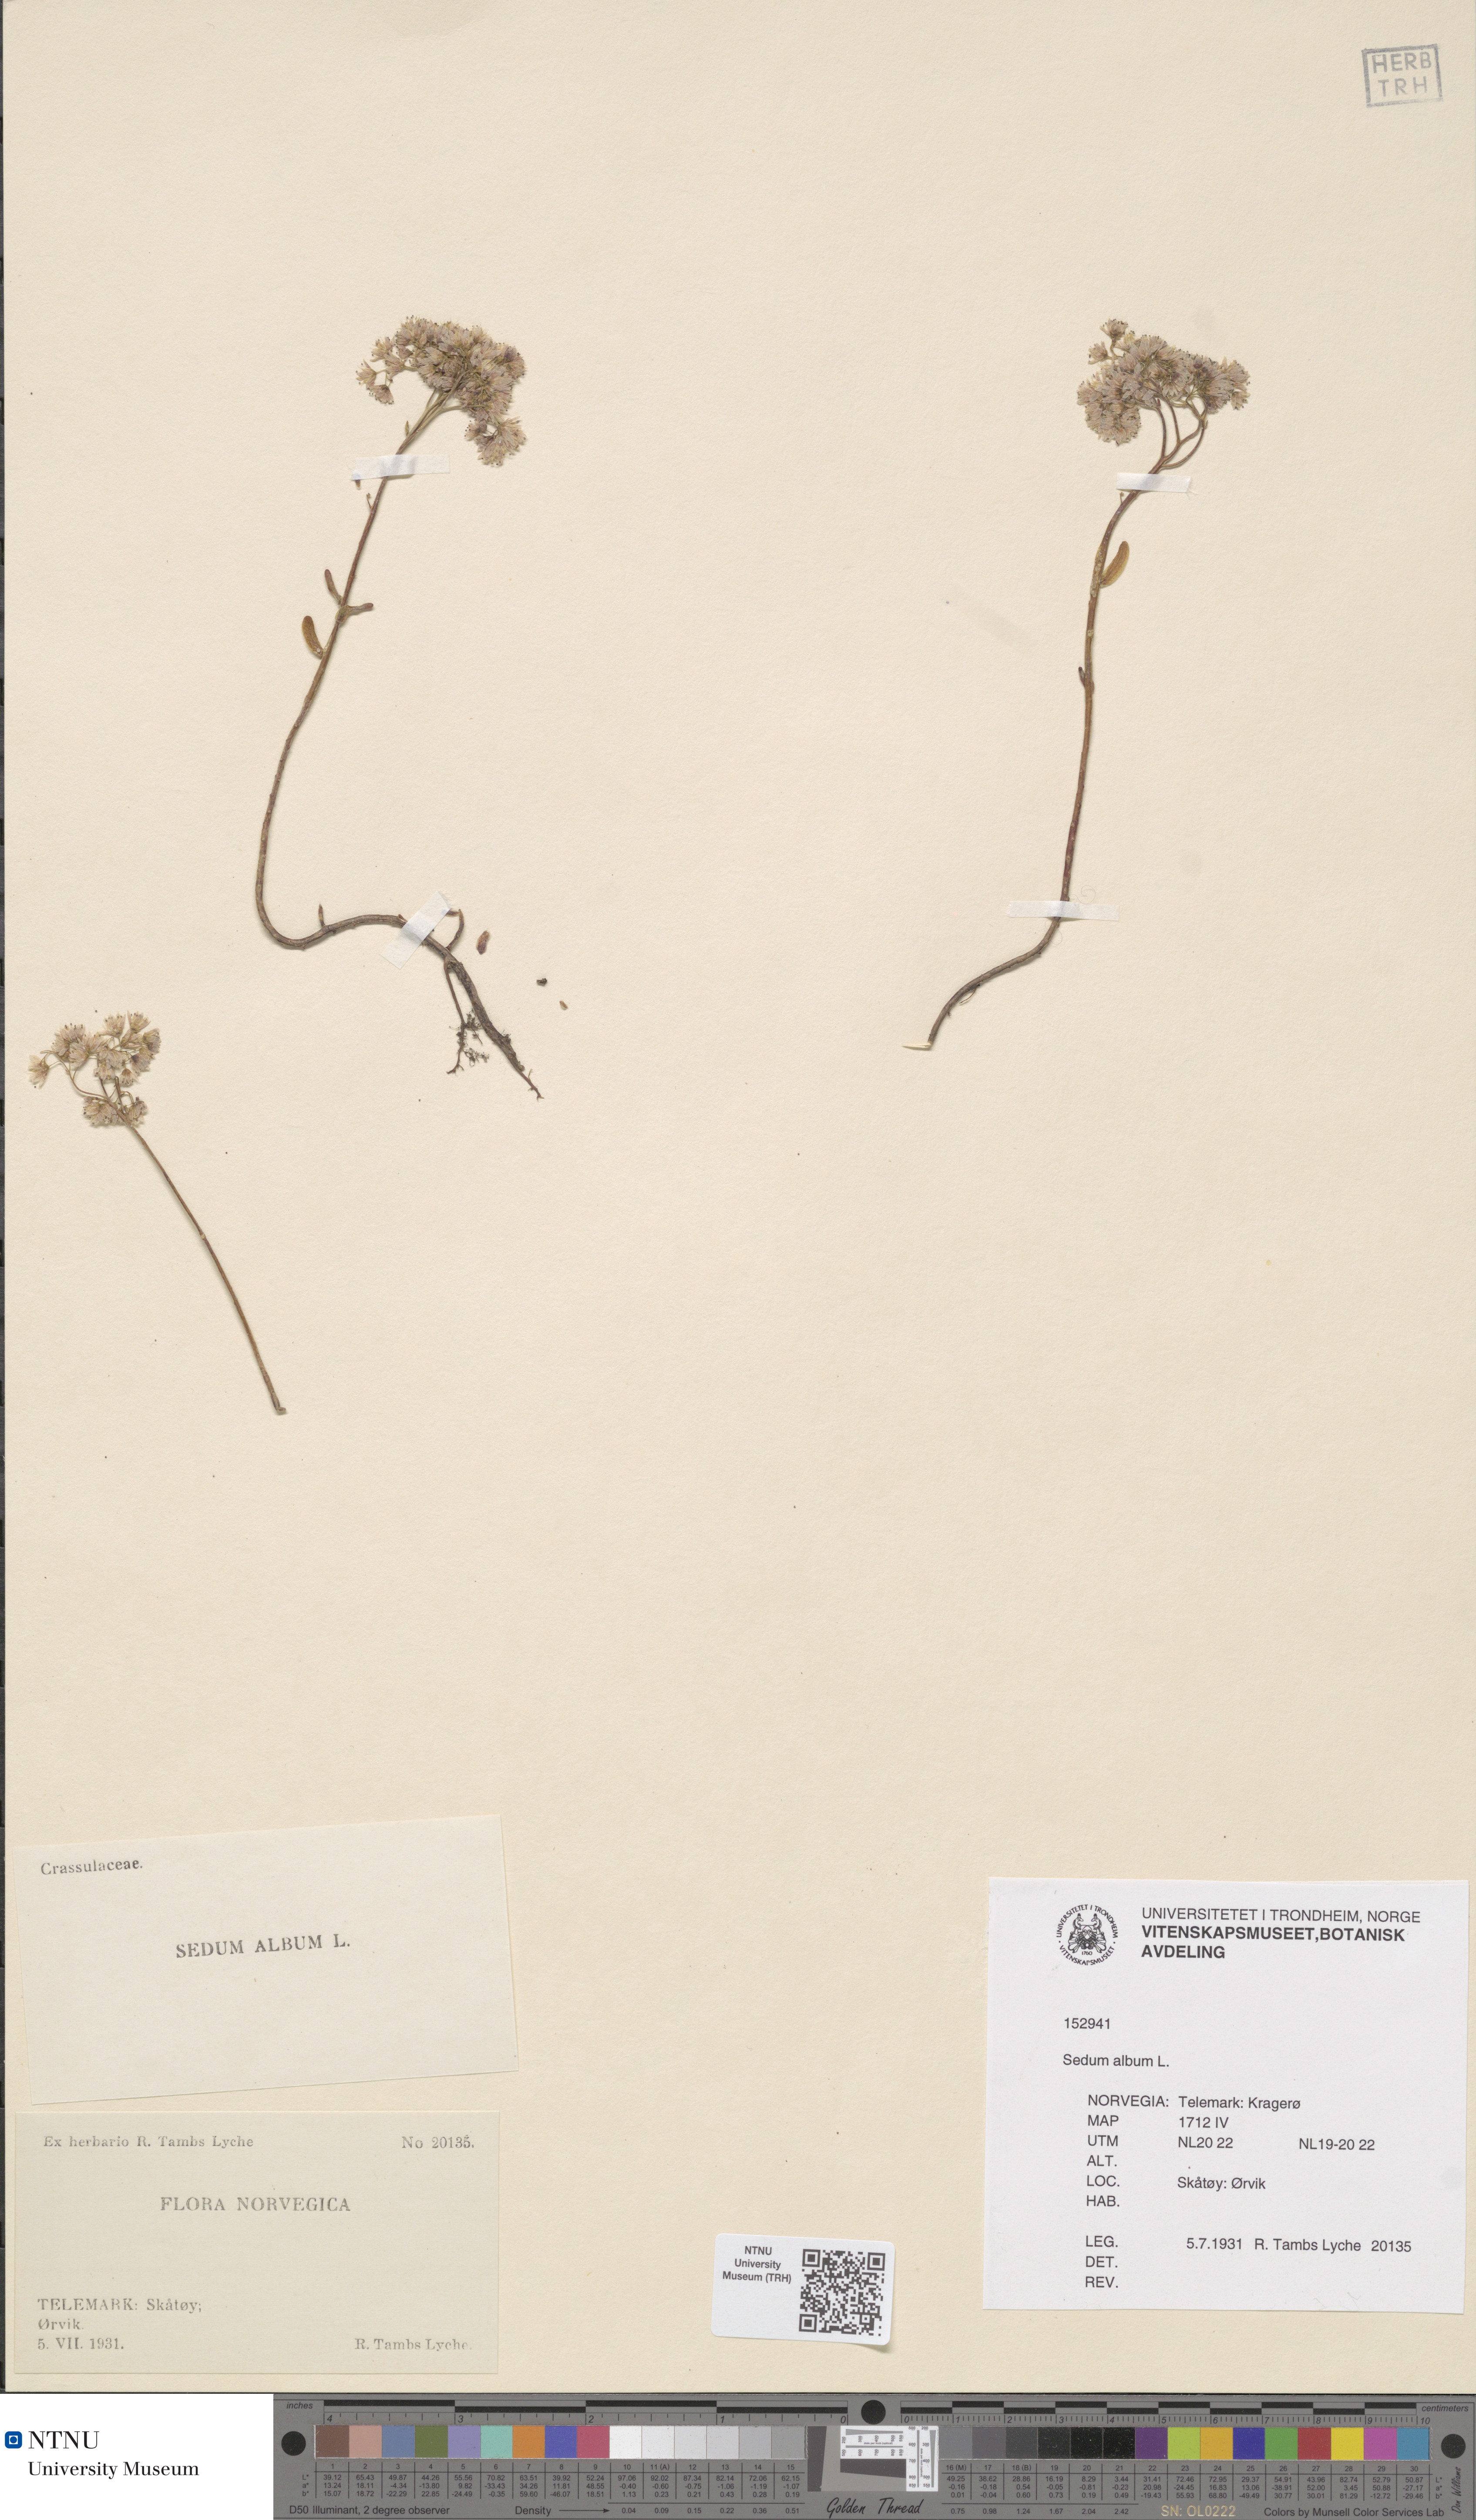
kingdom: Plantae
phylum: Tracheophyta
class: Magnoliopsida
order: Saxifragales
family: Crassulaceae
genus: Sedum
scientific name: Sedum album
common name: White stonecrop
